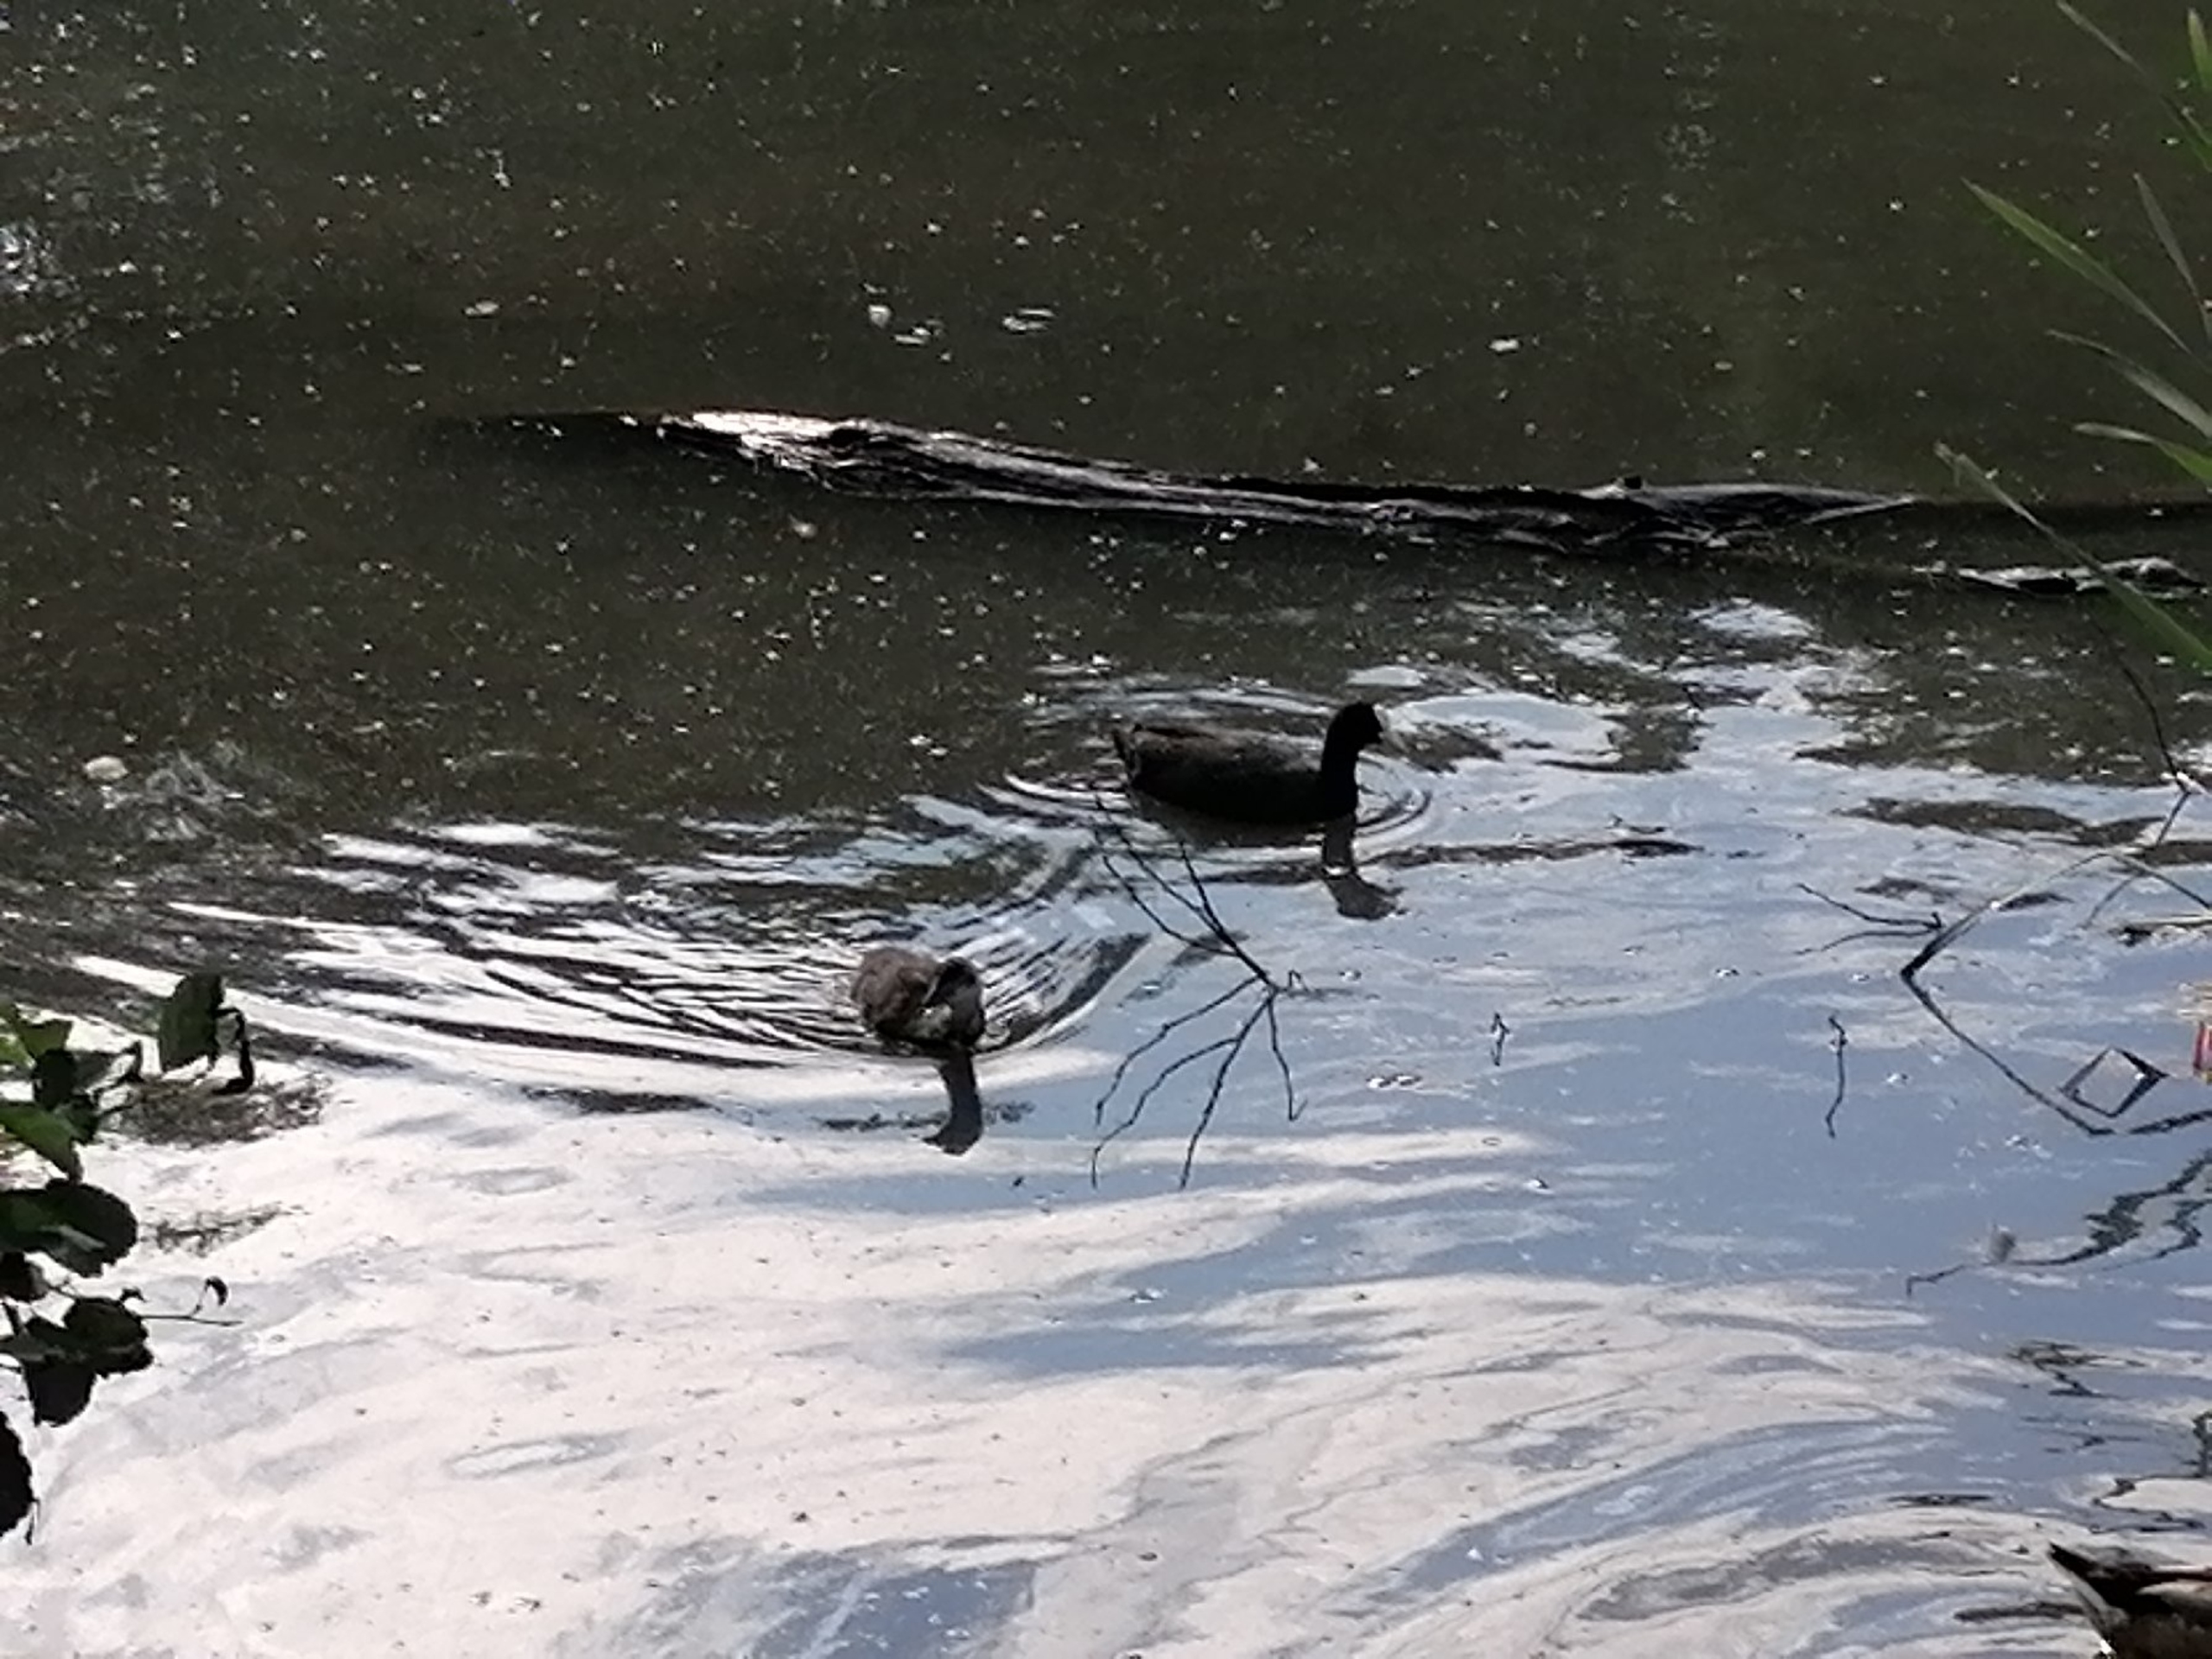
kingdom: Animalia
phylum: Chordata
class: Aves
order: Gruiformes
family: Rallidae
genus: Fulica
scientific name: Fulica atra
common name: Blishøne
